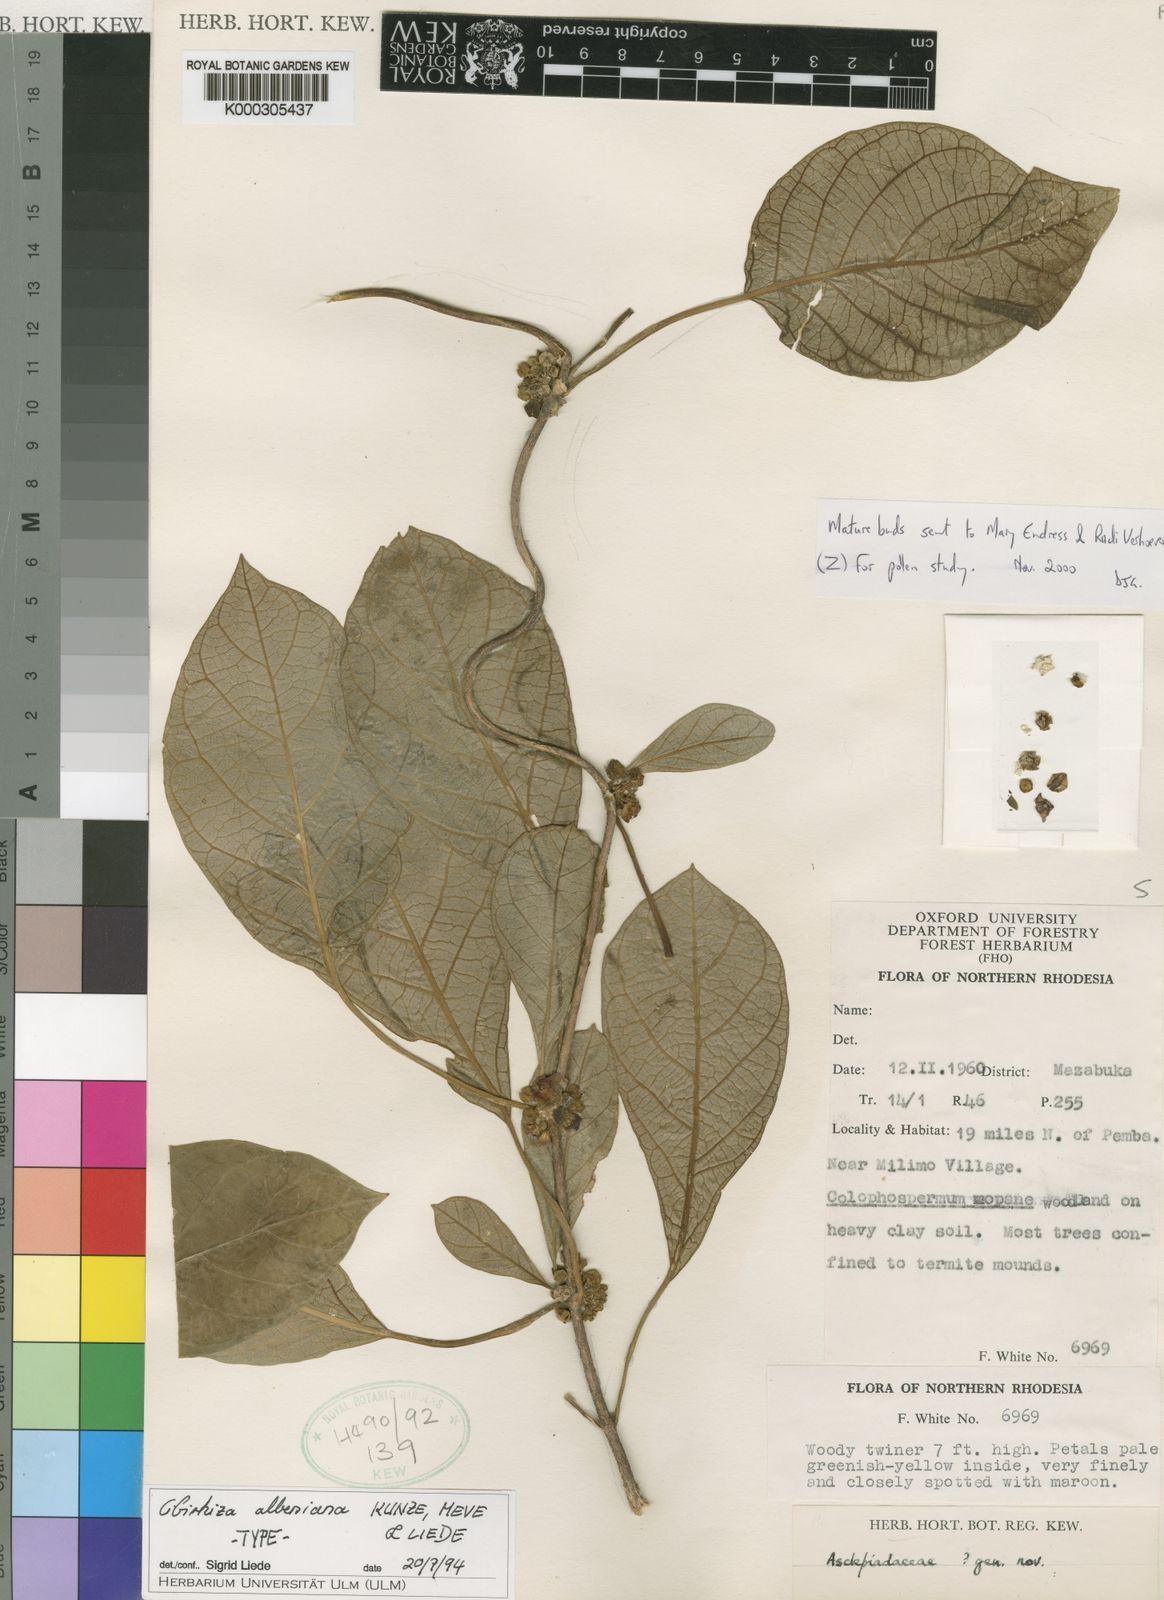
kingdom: Plantae
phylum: Tracheophyta
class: Magnoliopsida
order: Gentianales
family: Apocynaceae
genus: Cibirhiza
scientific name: Cibirhiza
